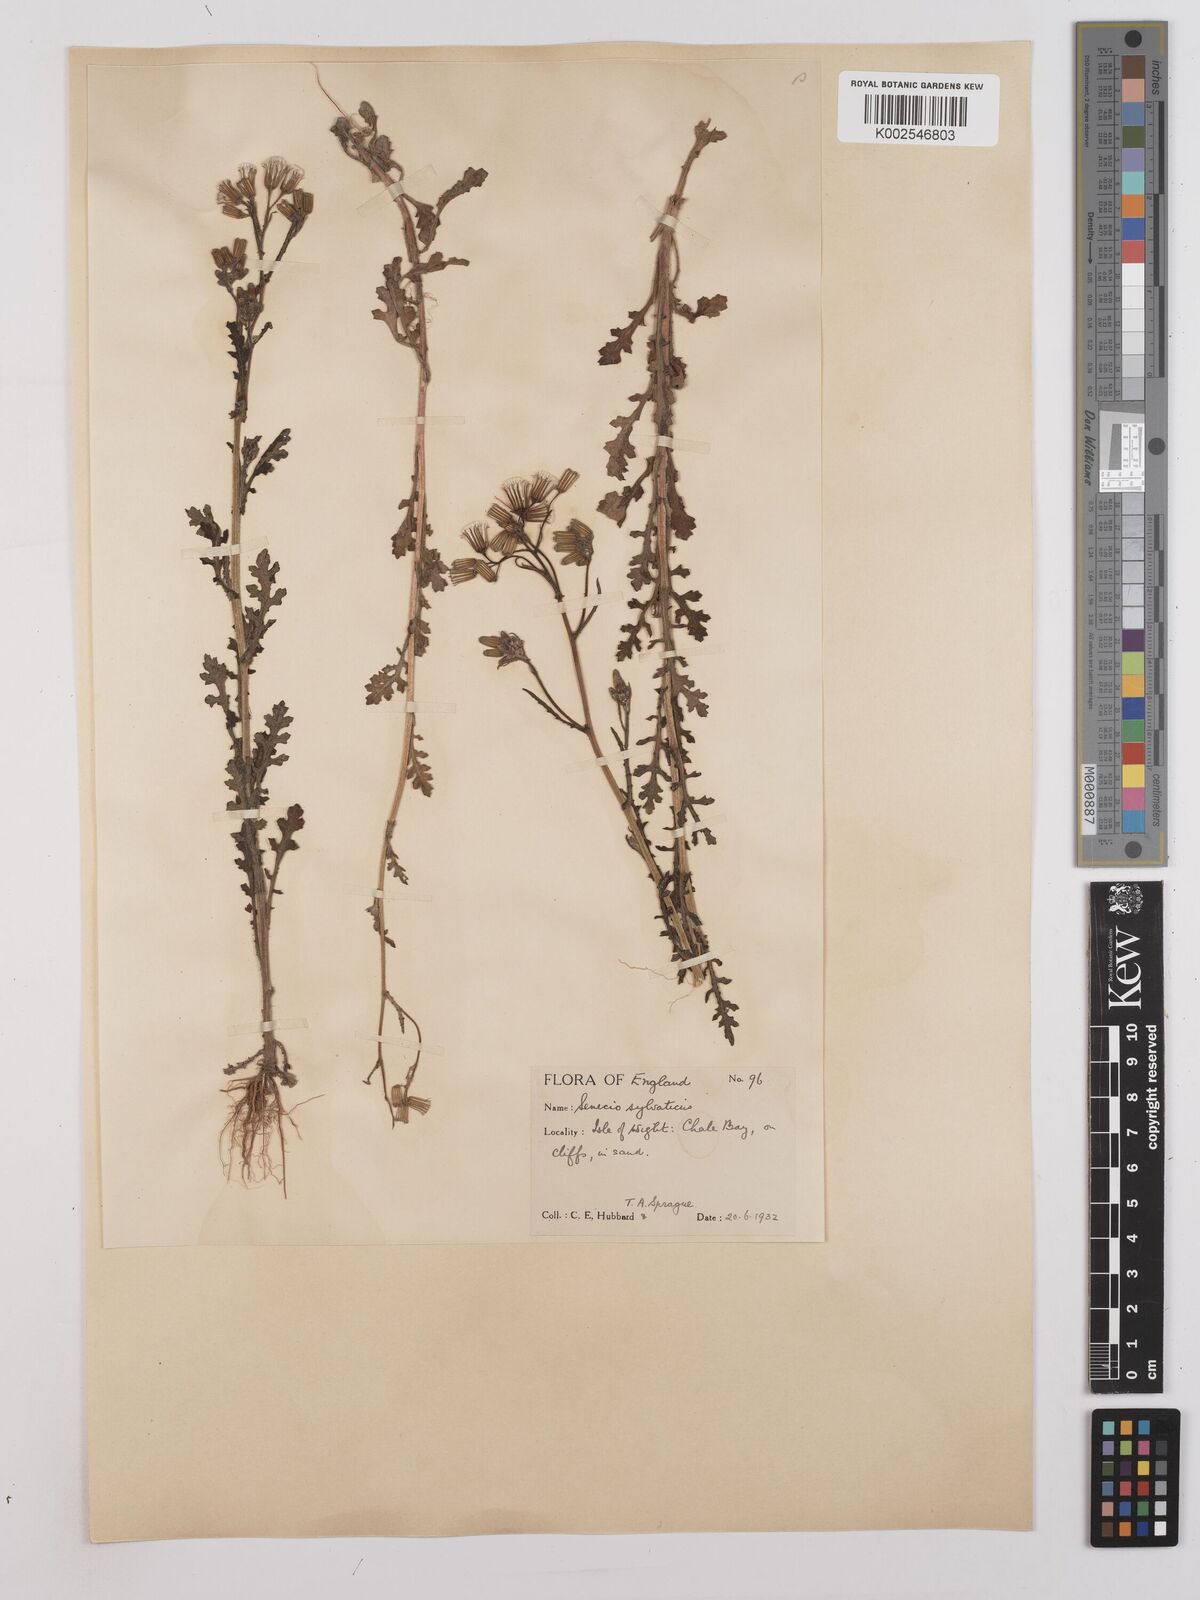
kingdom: Plantae
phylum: Tracheophyta
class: Magnoliopsida
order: Asterales
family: Asteraceae
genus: Senecio
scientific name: Senecio sylvaticus
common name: Woodland ragwort
